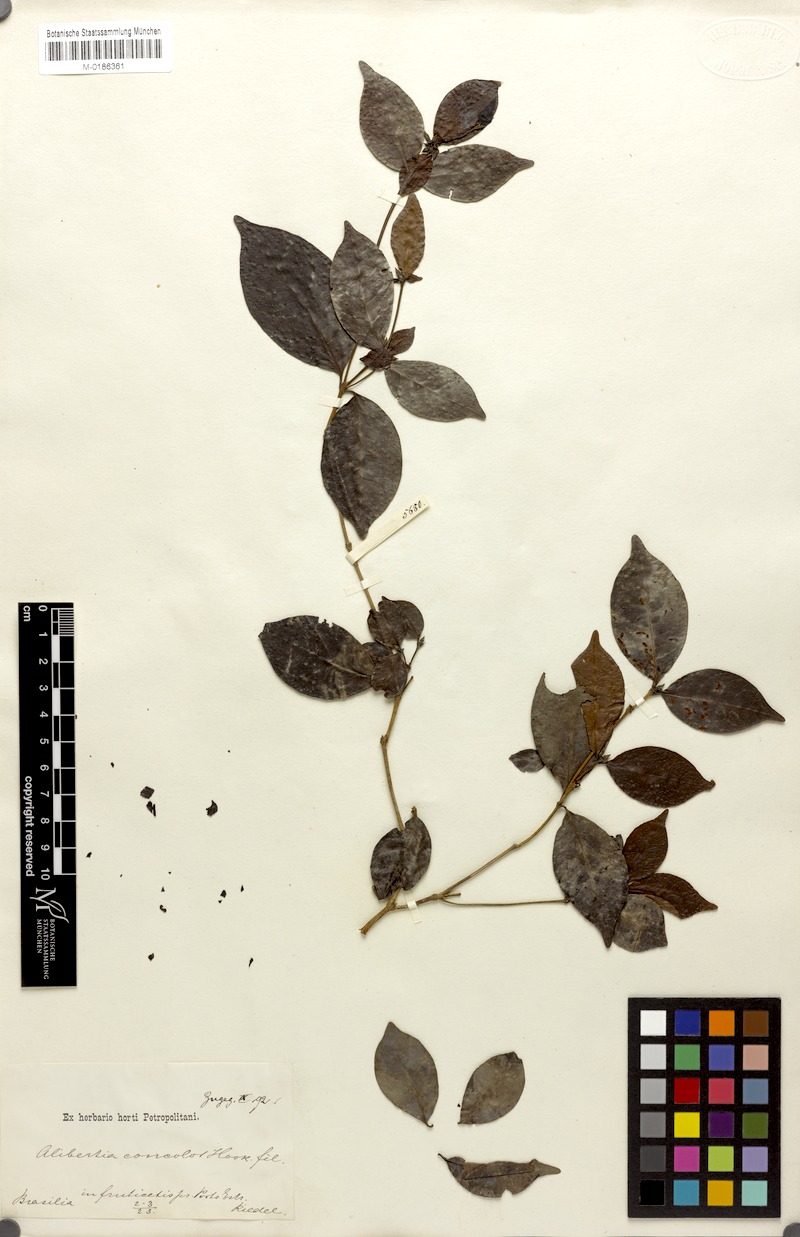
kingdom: Plantae
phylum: Tracheophyta
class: Magnoliopsida
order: Gentianales
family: Rubiaceae
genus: Cordiera
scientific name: Cordiera concolor
